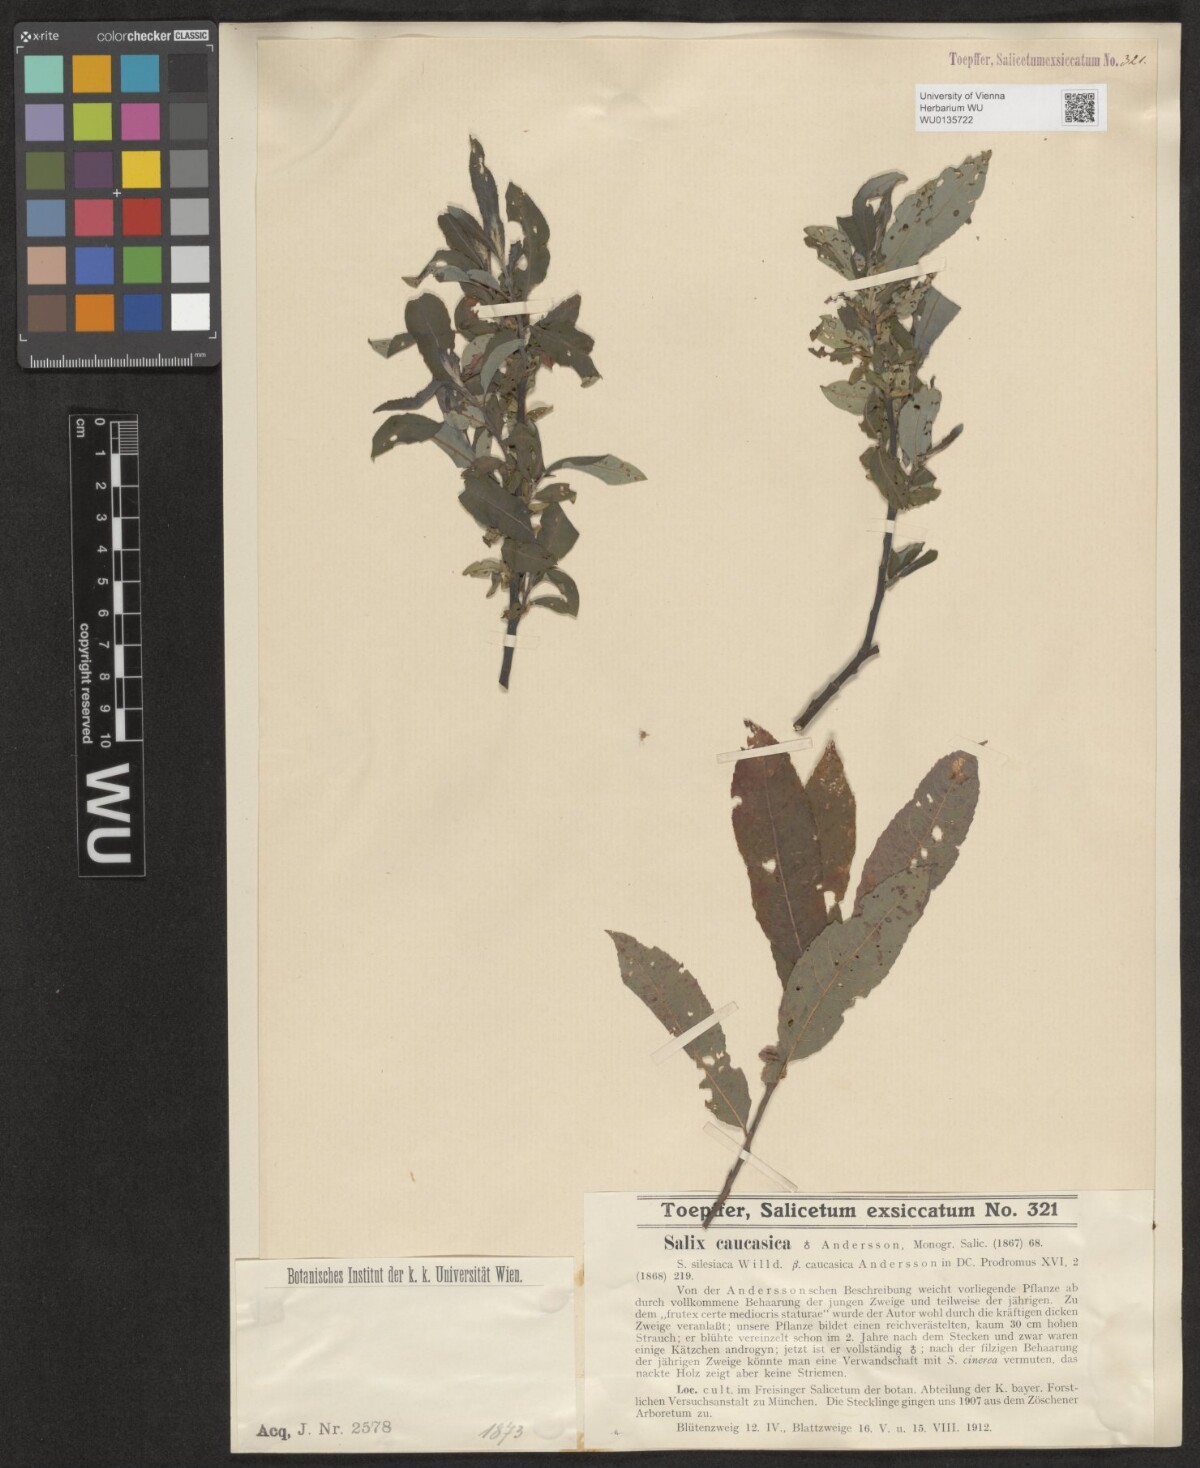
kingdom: Plantae
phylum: Tracheophyta
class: Magnoliopsida
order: Malpighiales
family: Salicaceae
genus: Salix
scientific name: Salix caucasica
